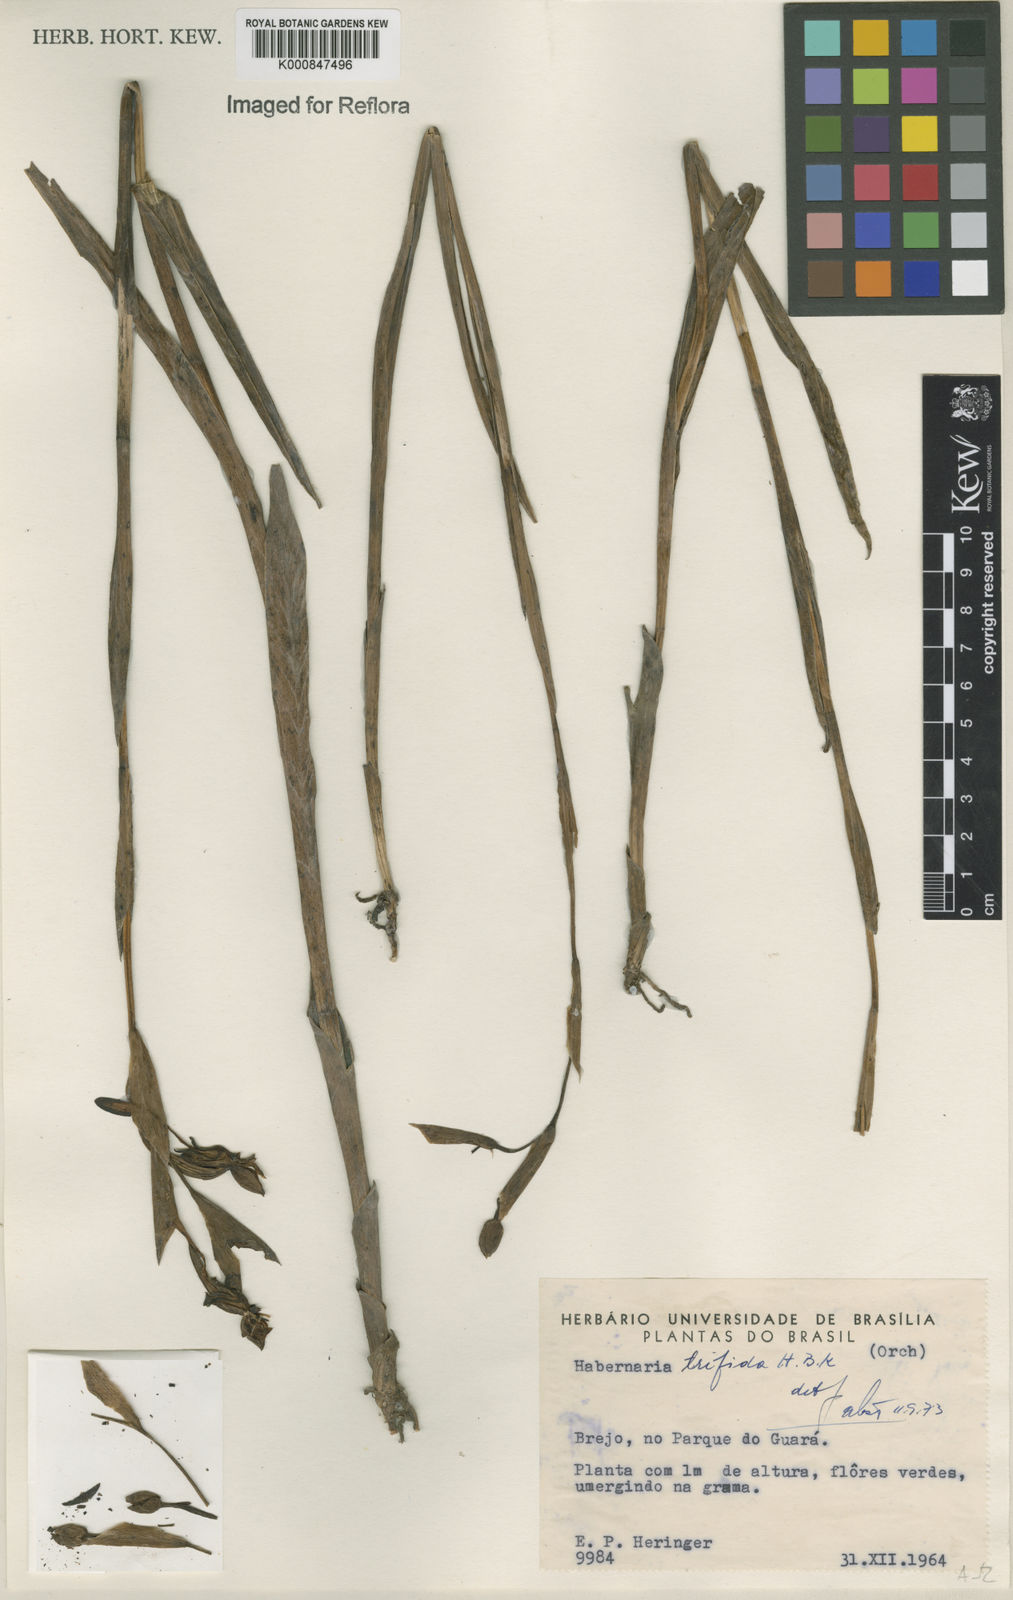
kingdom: Plantae
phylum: Tracheophyta
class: Liliopsida
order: Asparagales
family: Orchidaceae
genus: Habenaria
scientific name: Habenaria trifida
